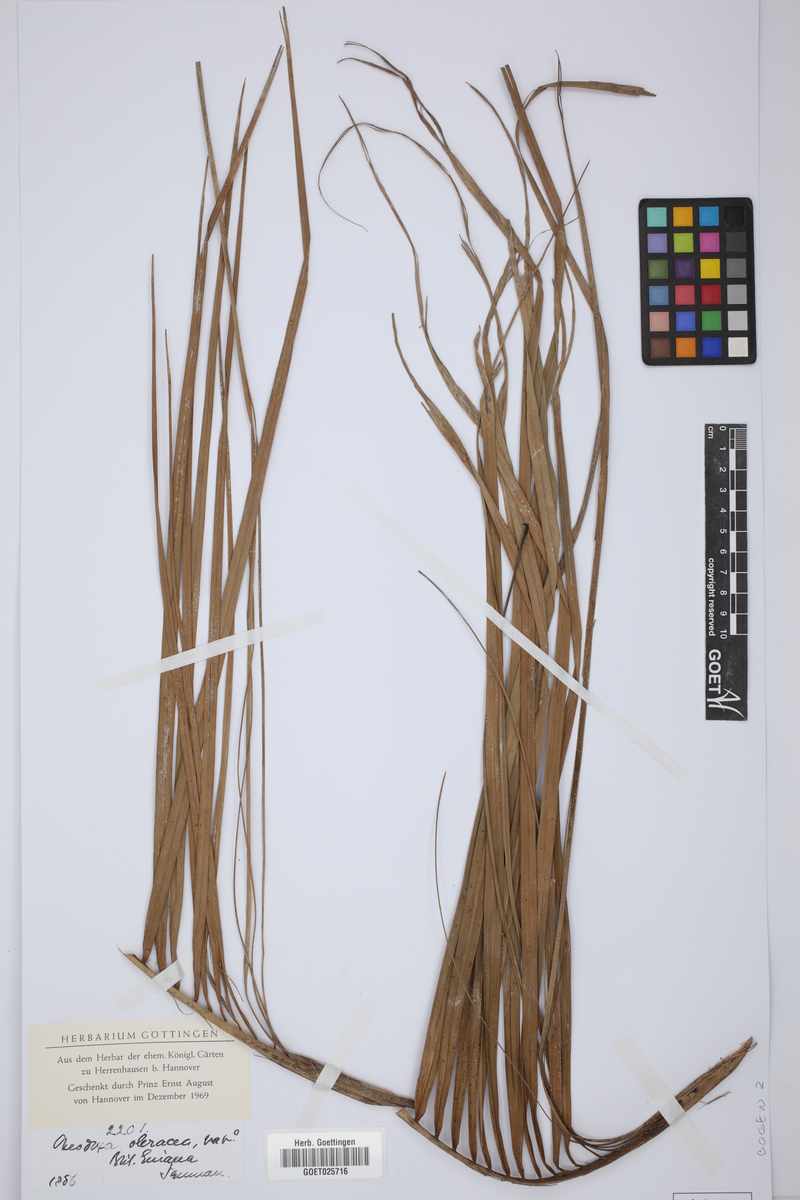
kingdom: Plantae
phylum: Tracheophyta
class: Liliopsida
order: Arecales
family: Arecaceae
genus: Roystonea
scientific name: Roystonea oleracea
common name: South american royal palm
